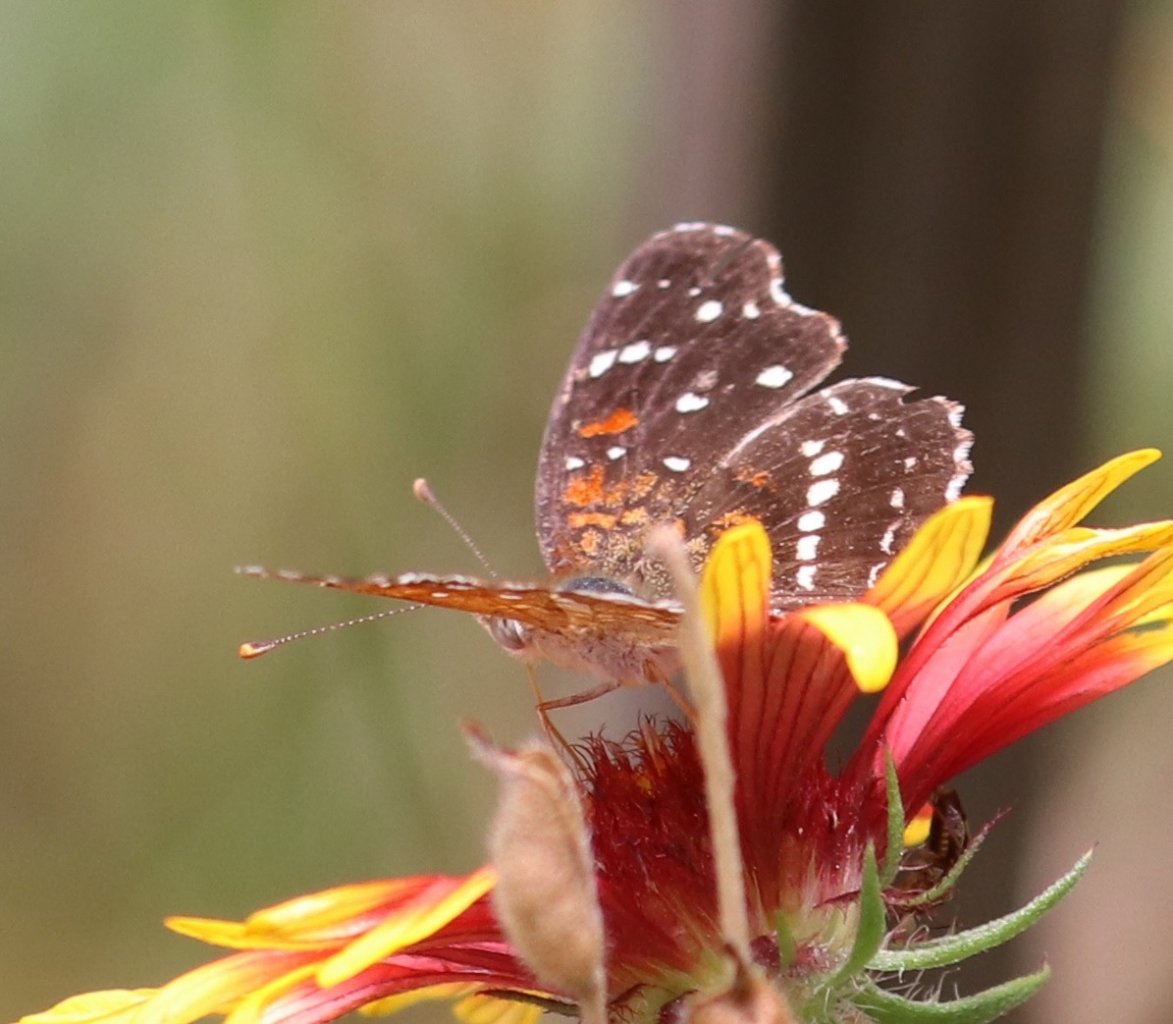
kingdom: Animalia
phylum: Arthropoda
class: Insecta
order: Lepidoptera
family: Nymphalidae
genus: Anthanassa
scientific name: Anthanassa texana
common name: Texan Crescent
